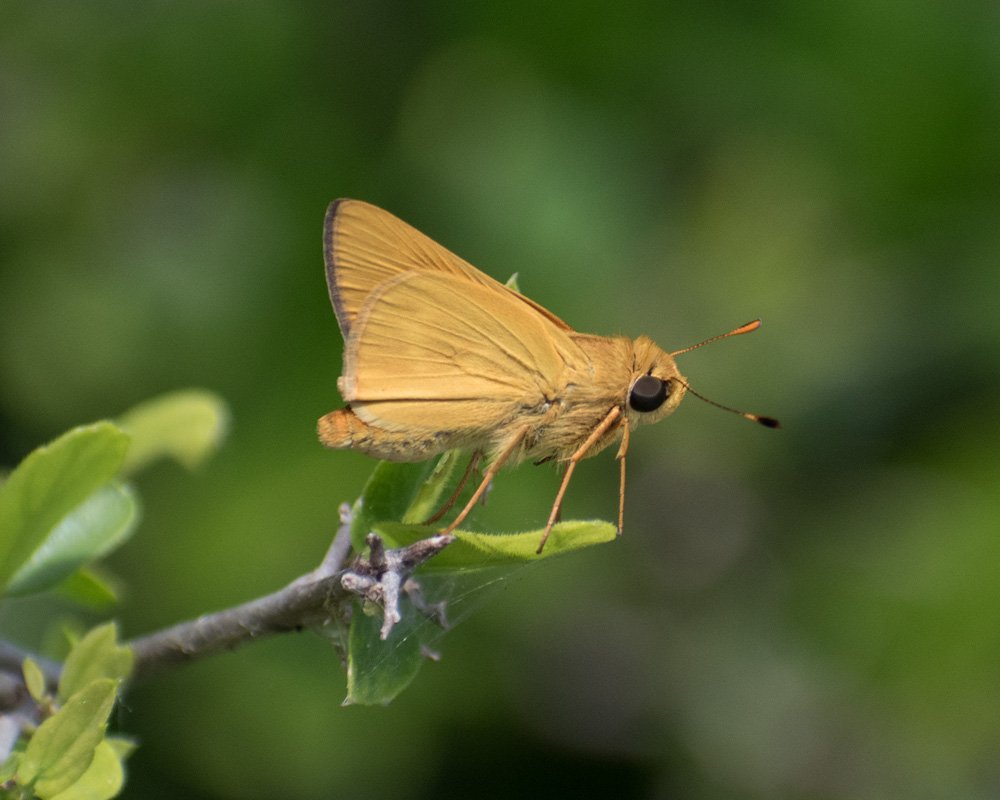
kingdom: Animalia
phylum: Arthropoda
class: Insecta
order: Lepidoptera
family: Hesperiidae
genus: Mellana
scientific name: Mellana eulogius
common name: Common Mellana
